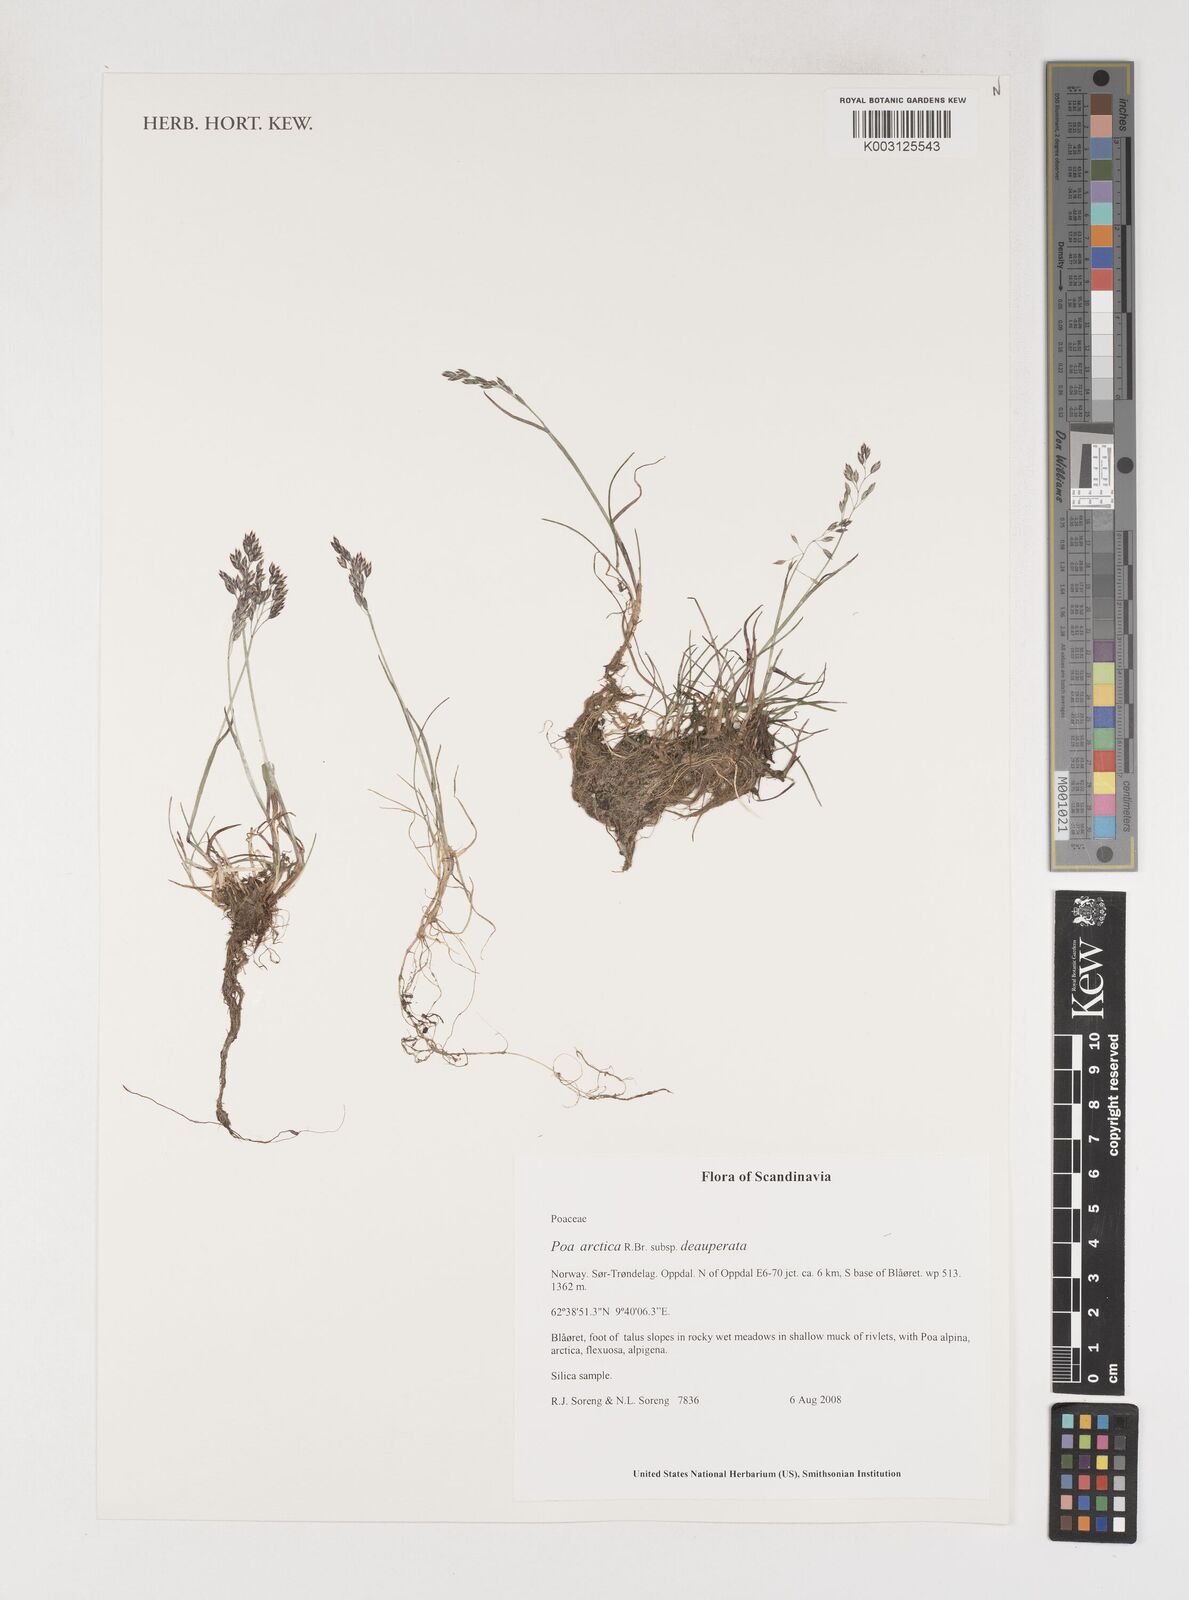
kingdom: Plantae
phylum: Tracheophyta
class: Liliopsida
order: Poales
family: Poaceae
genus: Poa
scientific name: Poa arctica
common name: Arctic bluegrass
